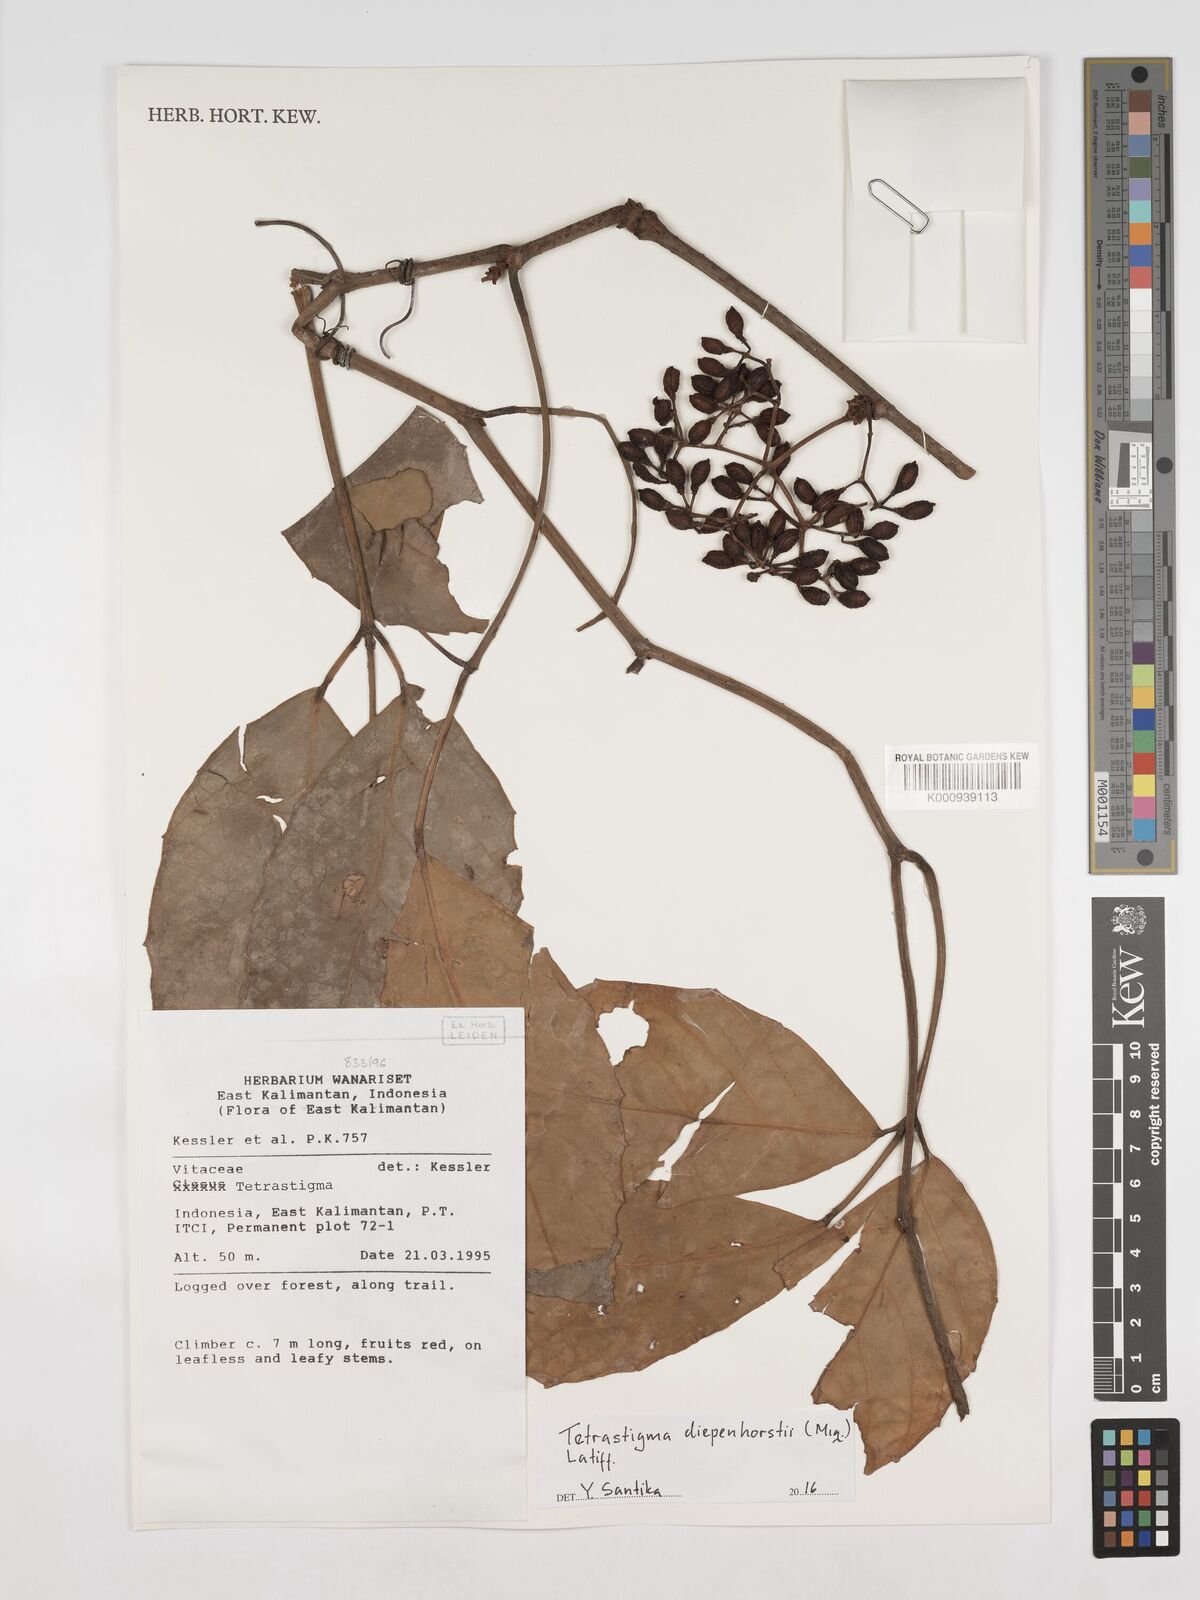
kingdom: Plantae
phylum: Tracheophyta
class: Magnoliopsida
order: Vitales
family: Vitaceae
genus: Tetrastigma
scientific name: Tetrastigma diepenhorstii
